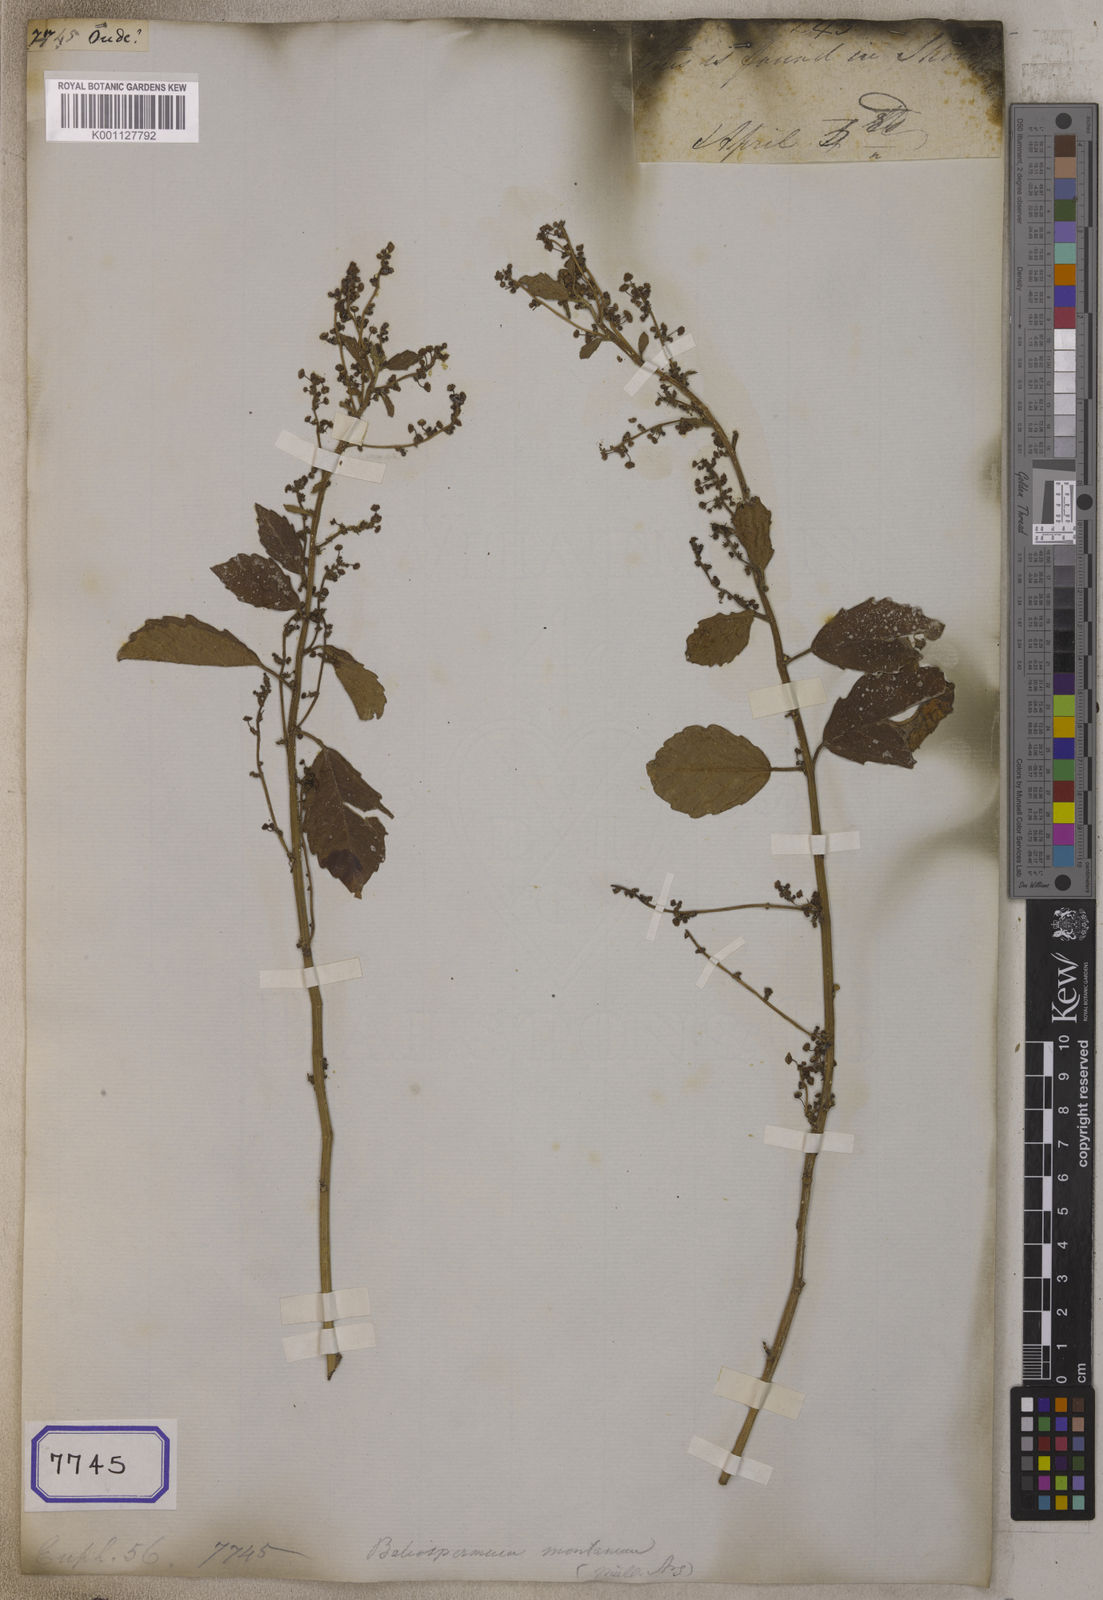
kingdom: Plantae
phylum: Tracheophyta
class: Magnoliopsida
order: Malpighiales
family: Euphorbiaceae
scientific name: Euphorbiaceae
